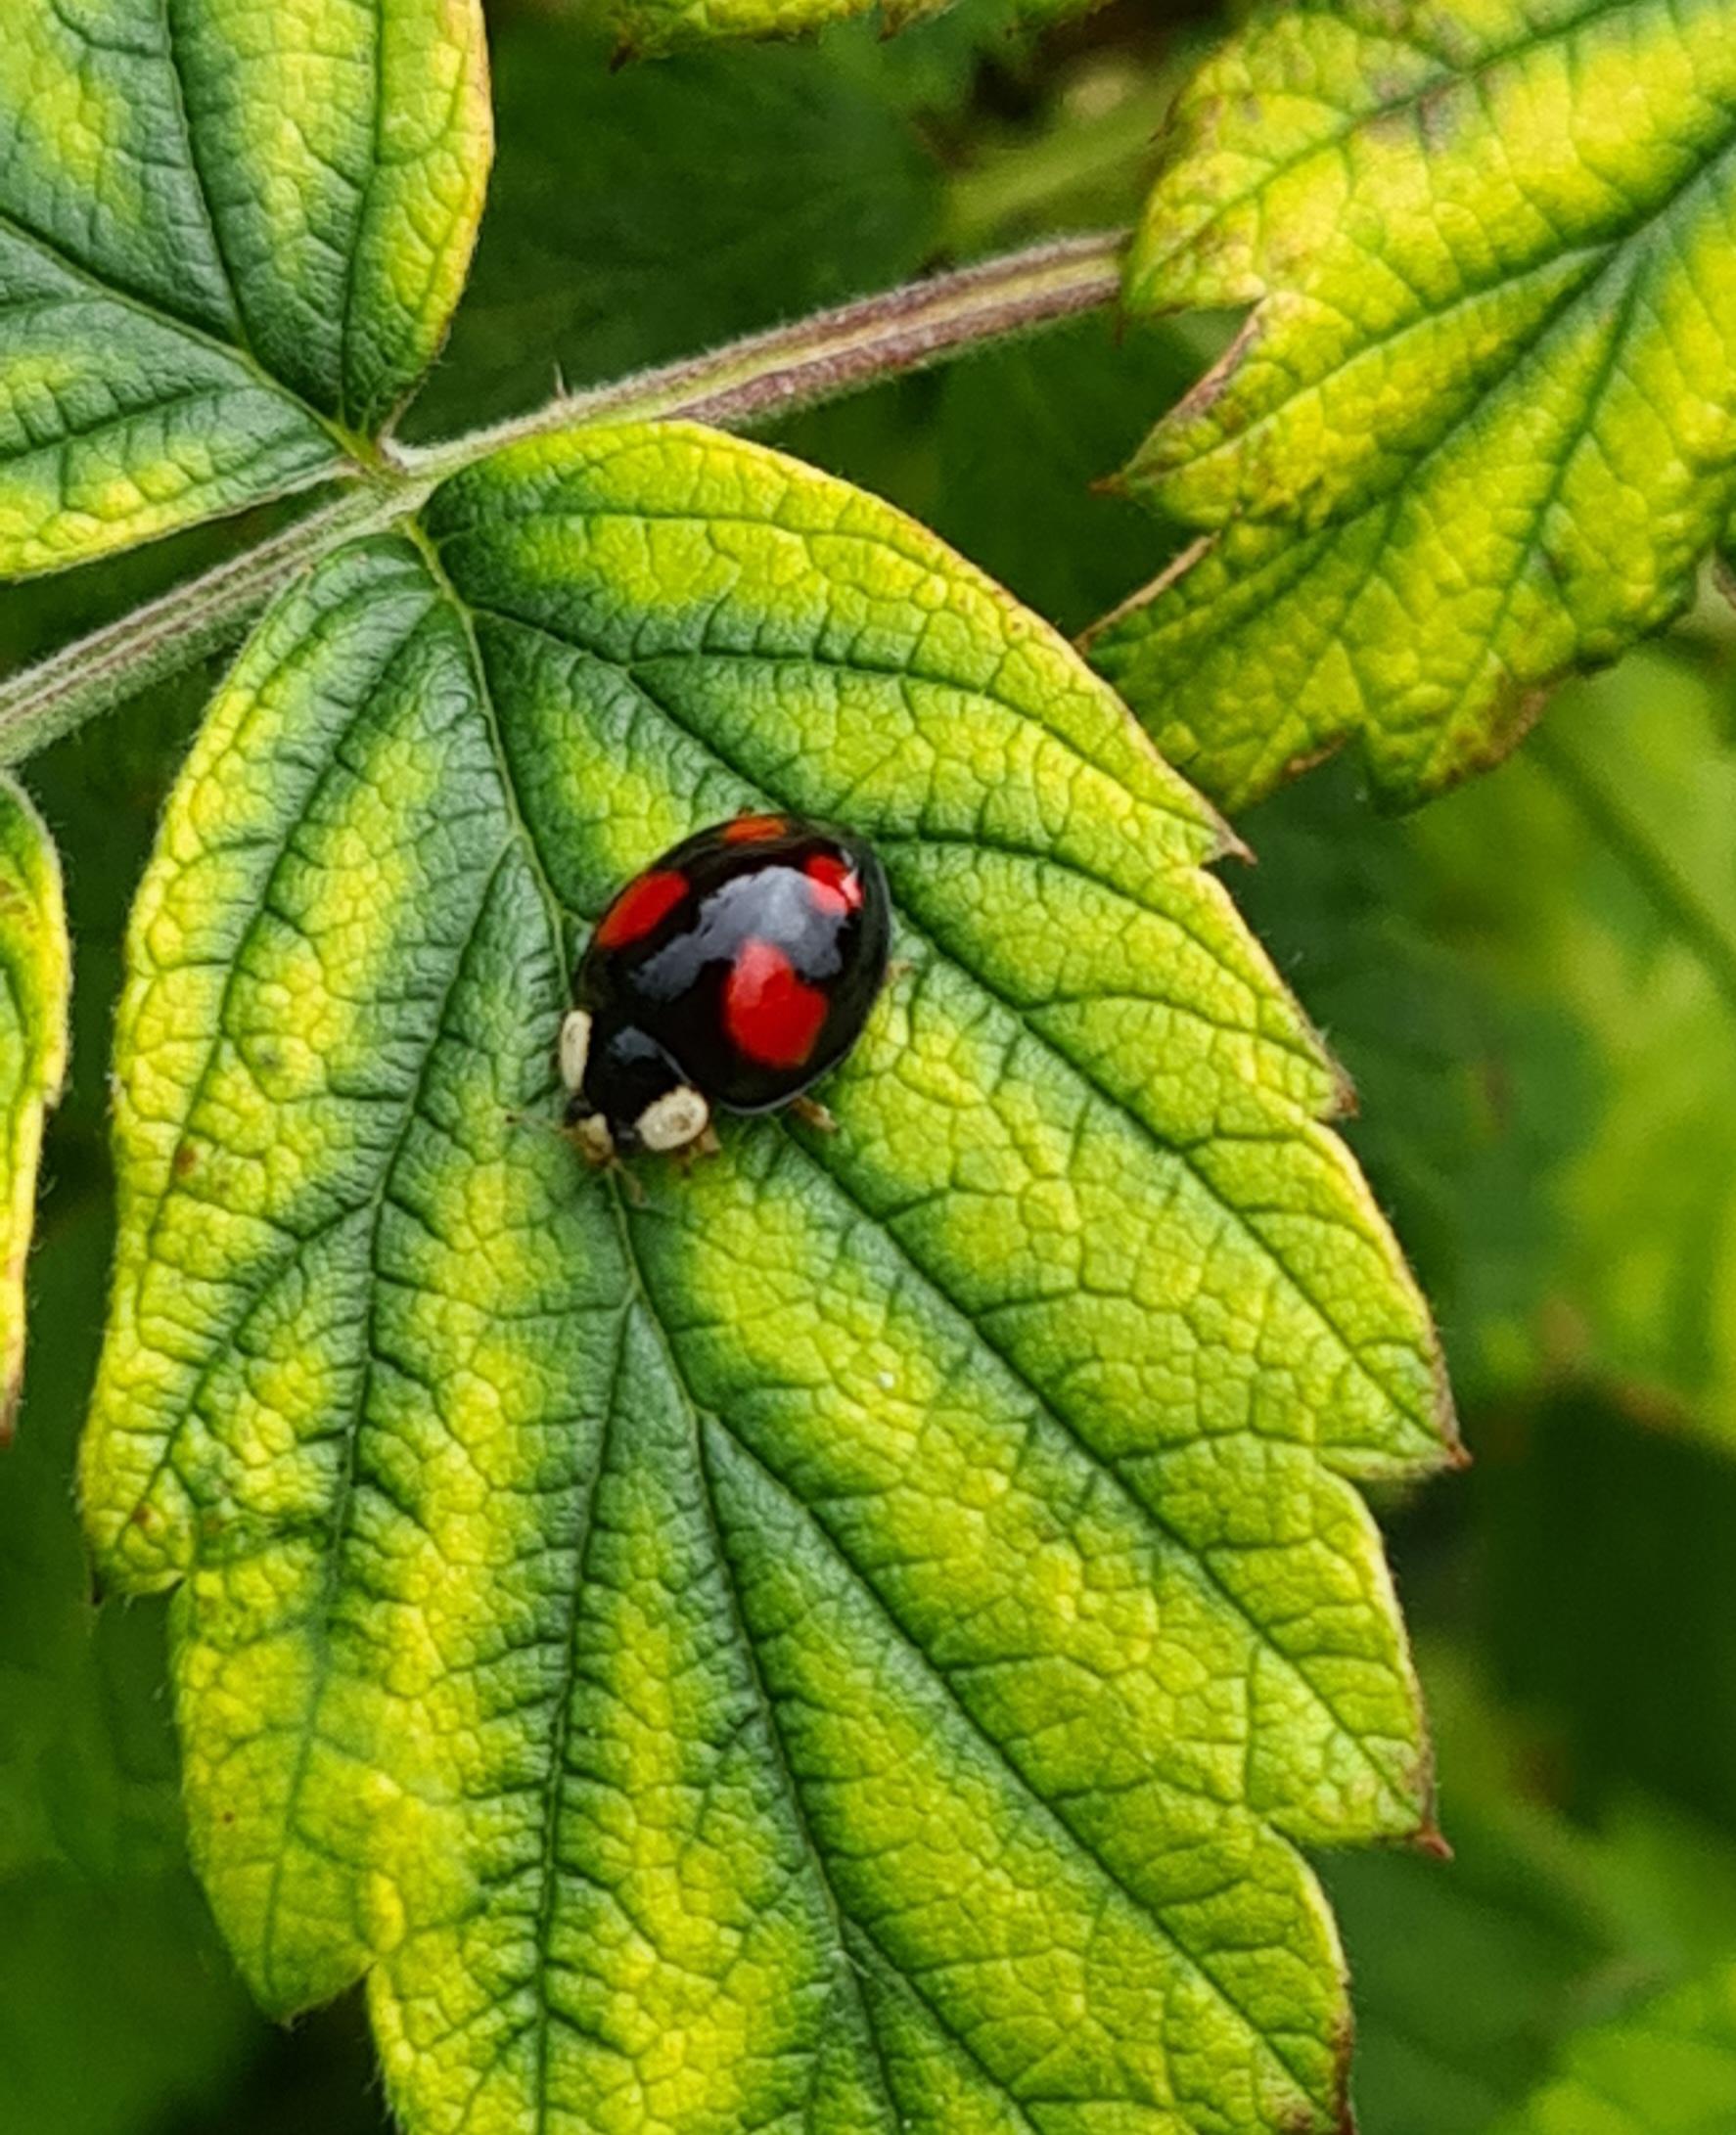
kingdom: Animalia
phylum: Arthropoda
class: Insecta
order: Coleoptera
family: Coccinellidae
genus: Harmonia
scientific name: Harmonia axyridis
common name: Harlekinmariehøne
